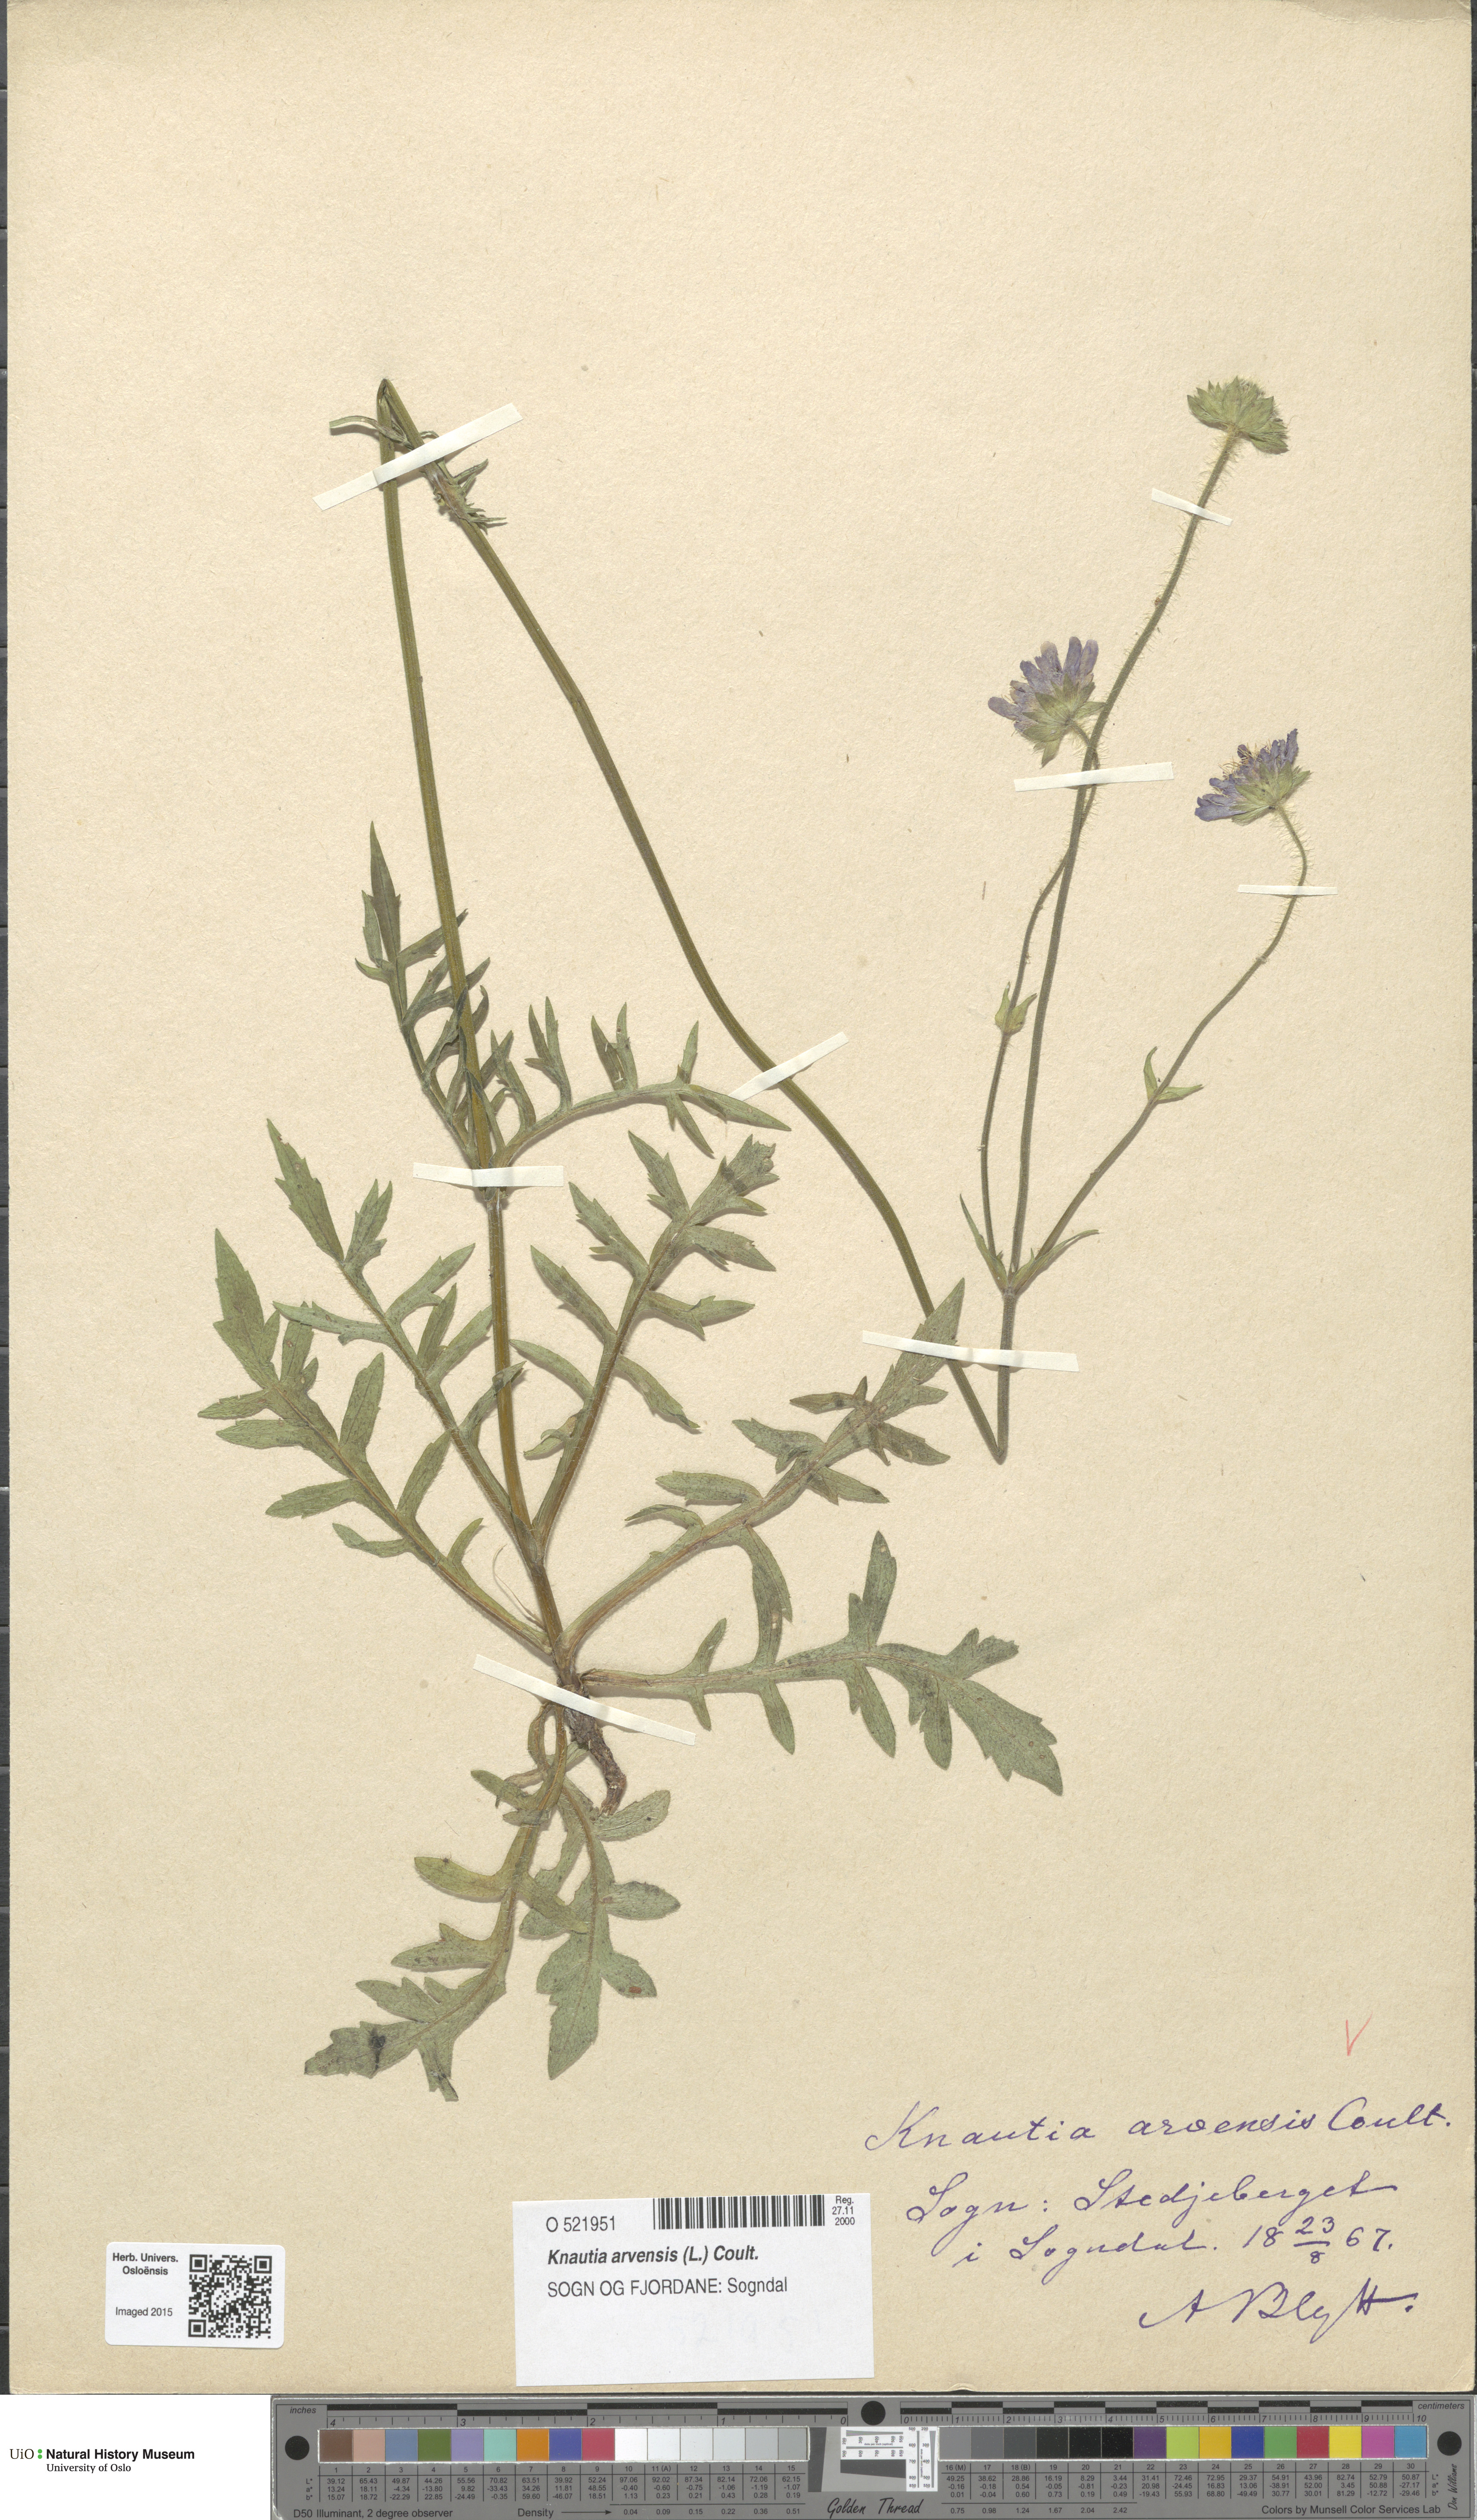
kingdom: Plantae
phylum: Tracheophyta
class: Magnoliopsida
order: Dipsacales
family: Caprifoliaceae
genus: Knautia
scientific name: Knautia arvensis
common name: Field scabiosa
